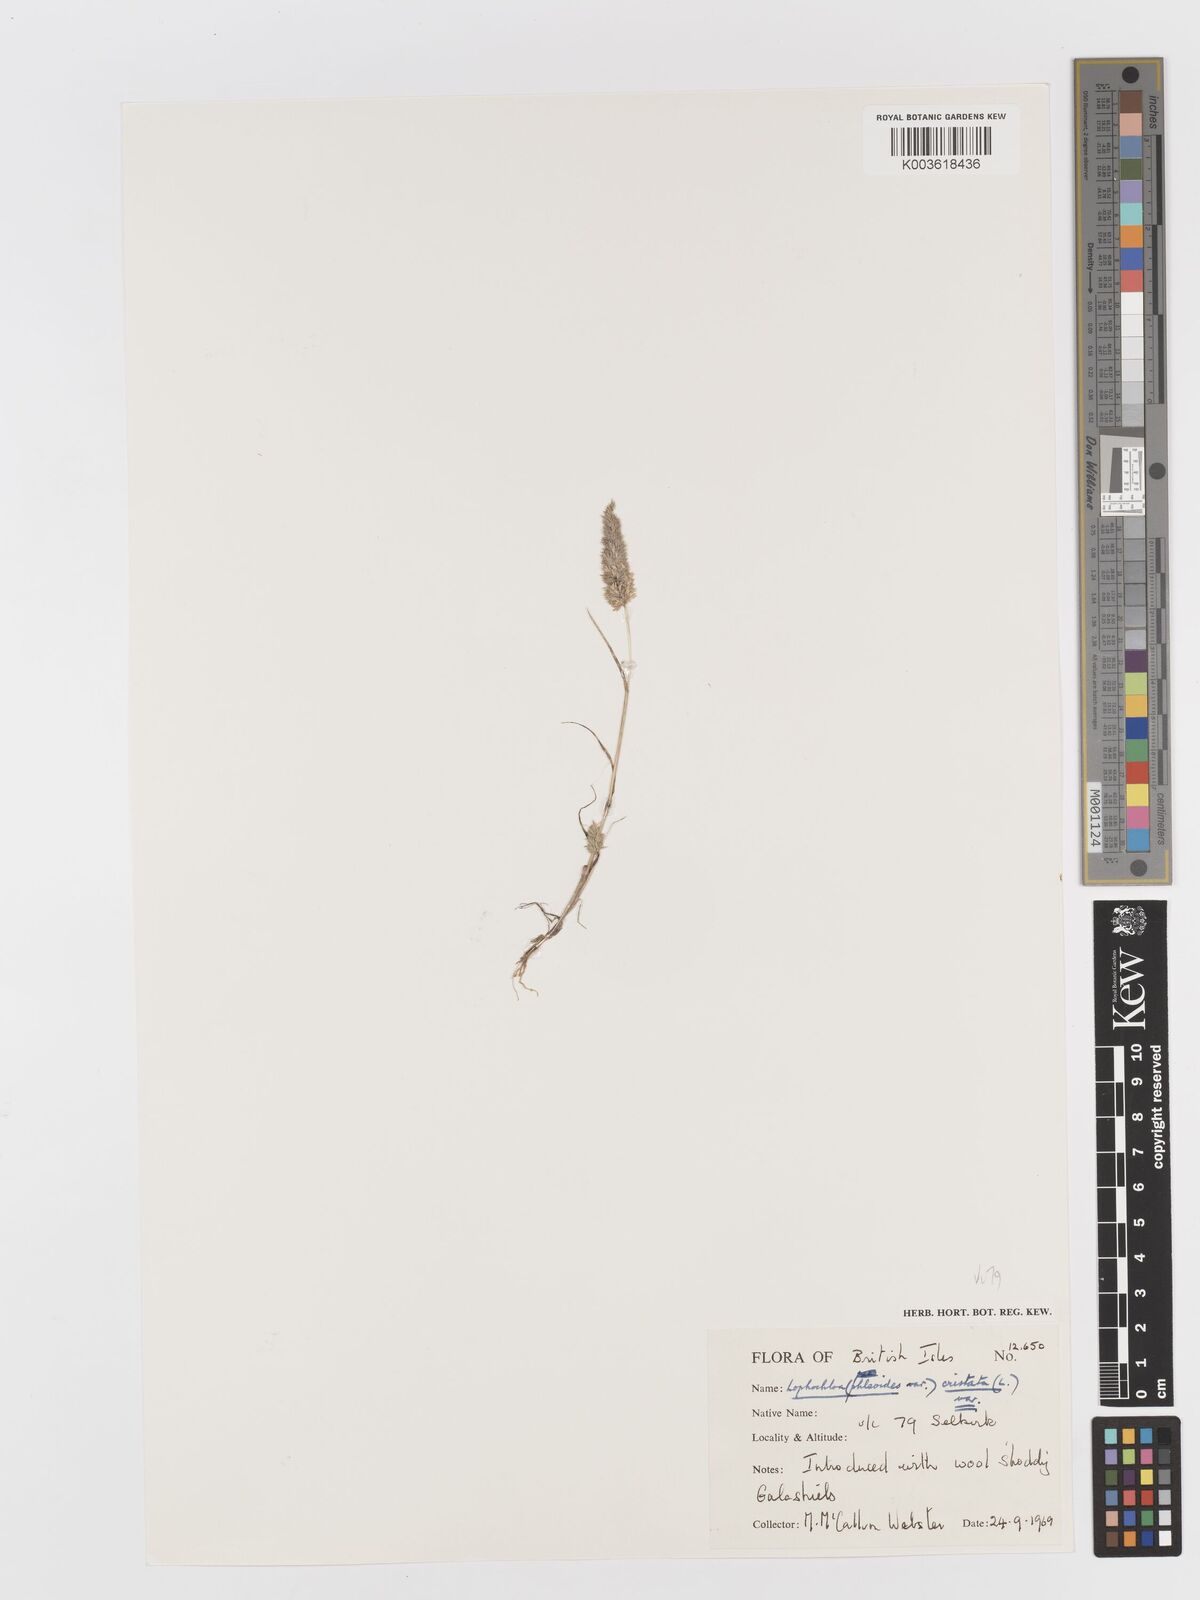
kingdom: Plantae
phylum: Tracheophyta
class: Liliopsida
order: Poales
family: Poaceae
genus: Rostraria
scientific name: Rostraria cristata
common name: Mediterranean hair-grass
